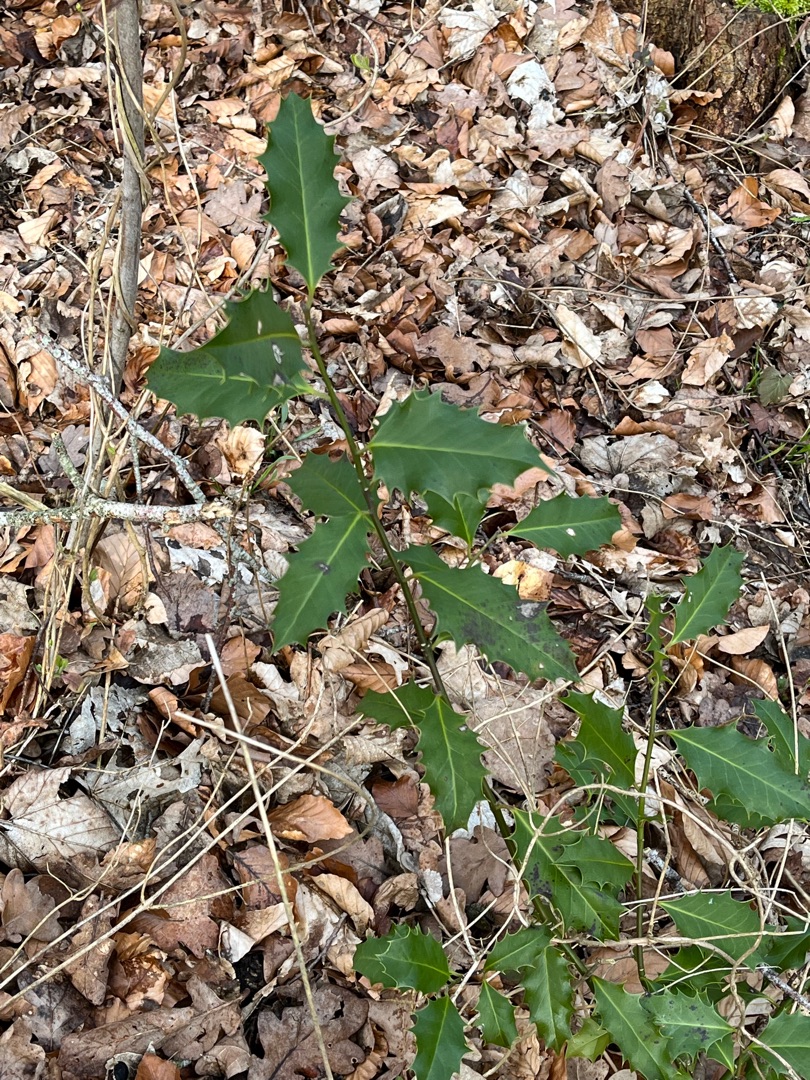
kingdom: Plantae
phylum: Tracheophyta
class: Magnoliopsida
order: Aquifoliales
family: Aquifoliaceae
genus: Ilex
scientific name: Ilex aquifolium
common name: Kristtorn
